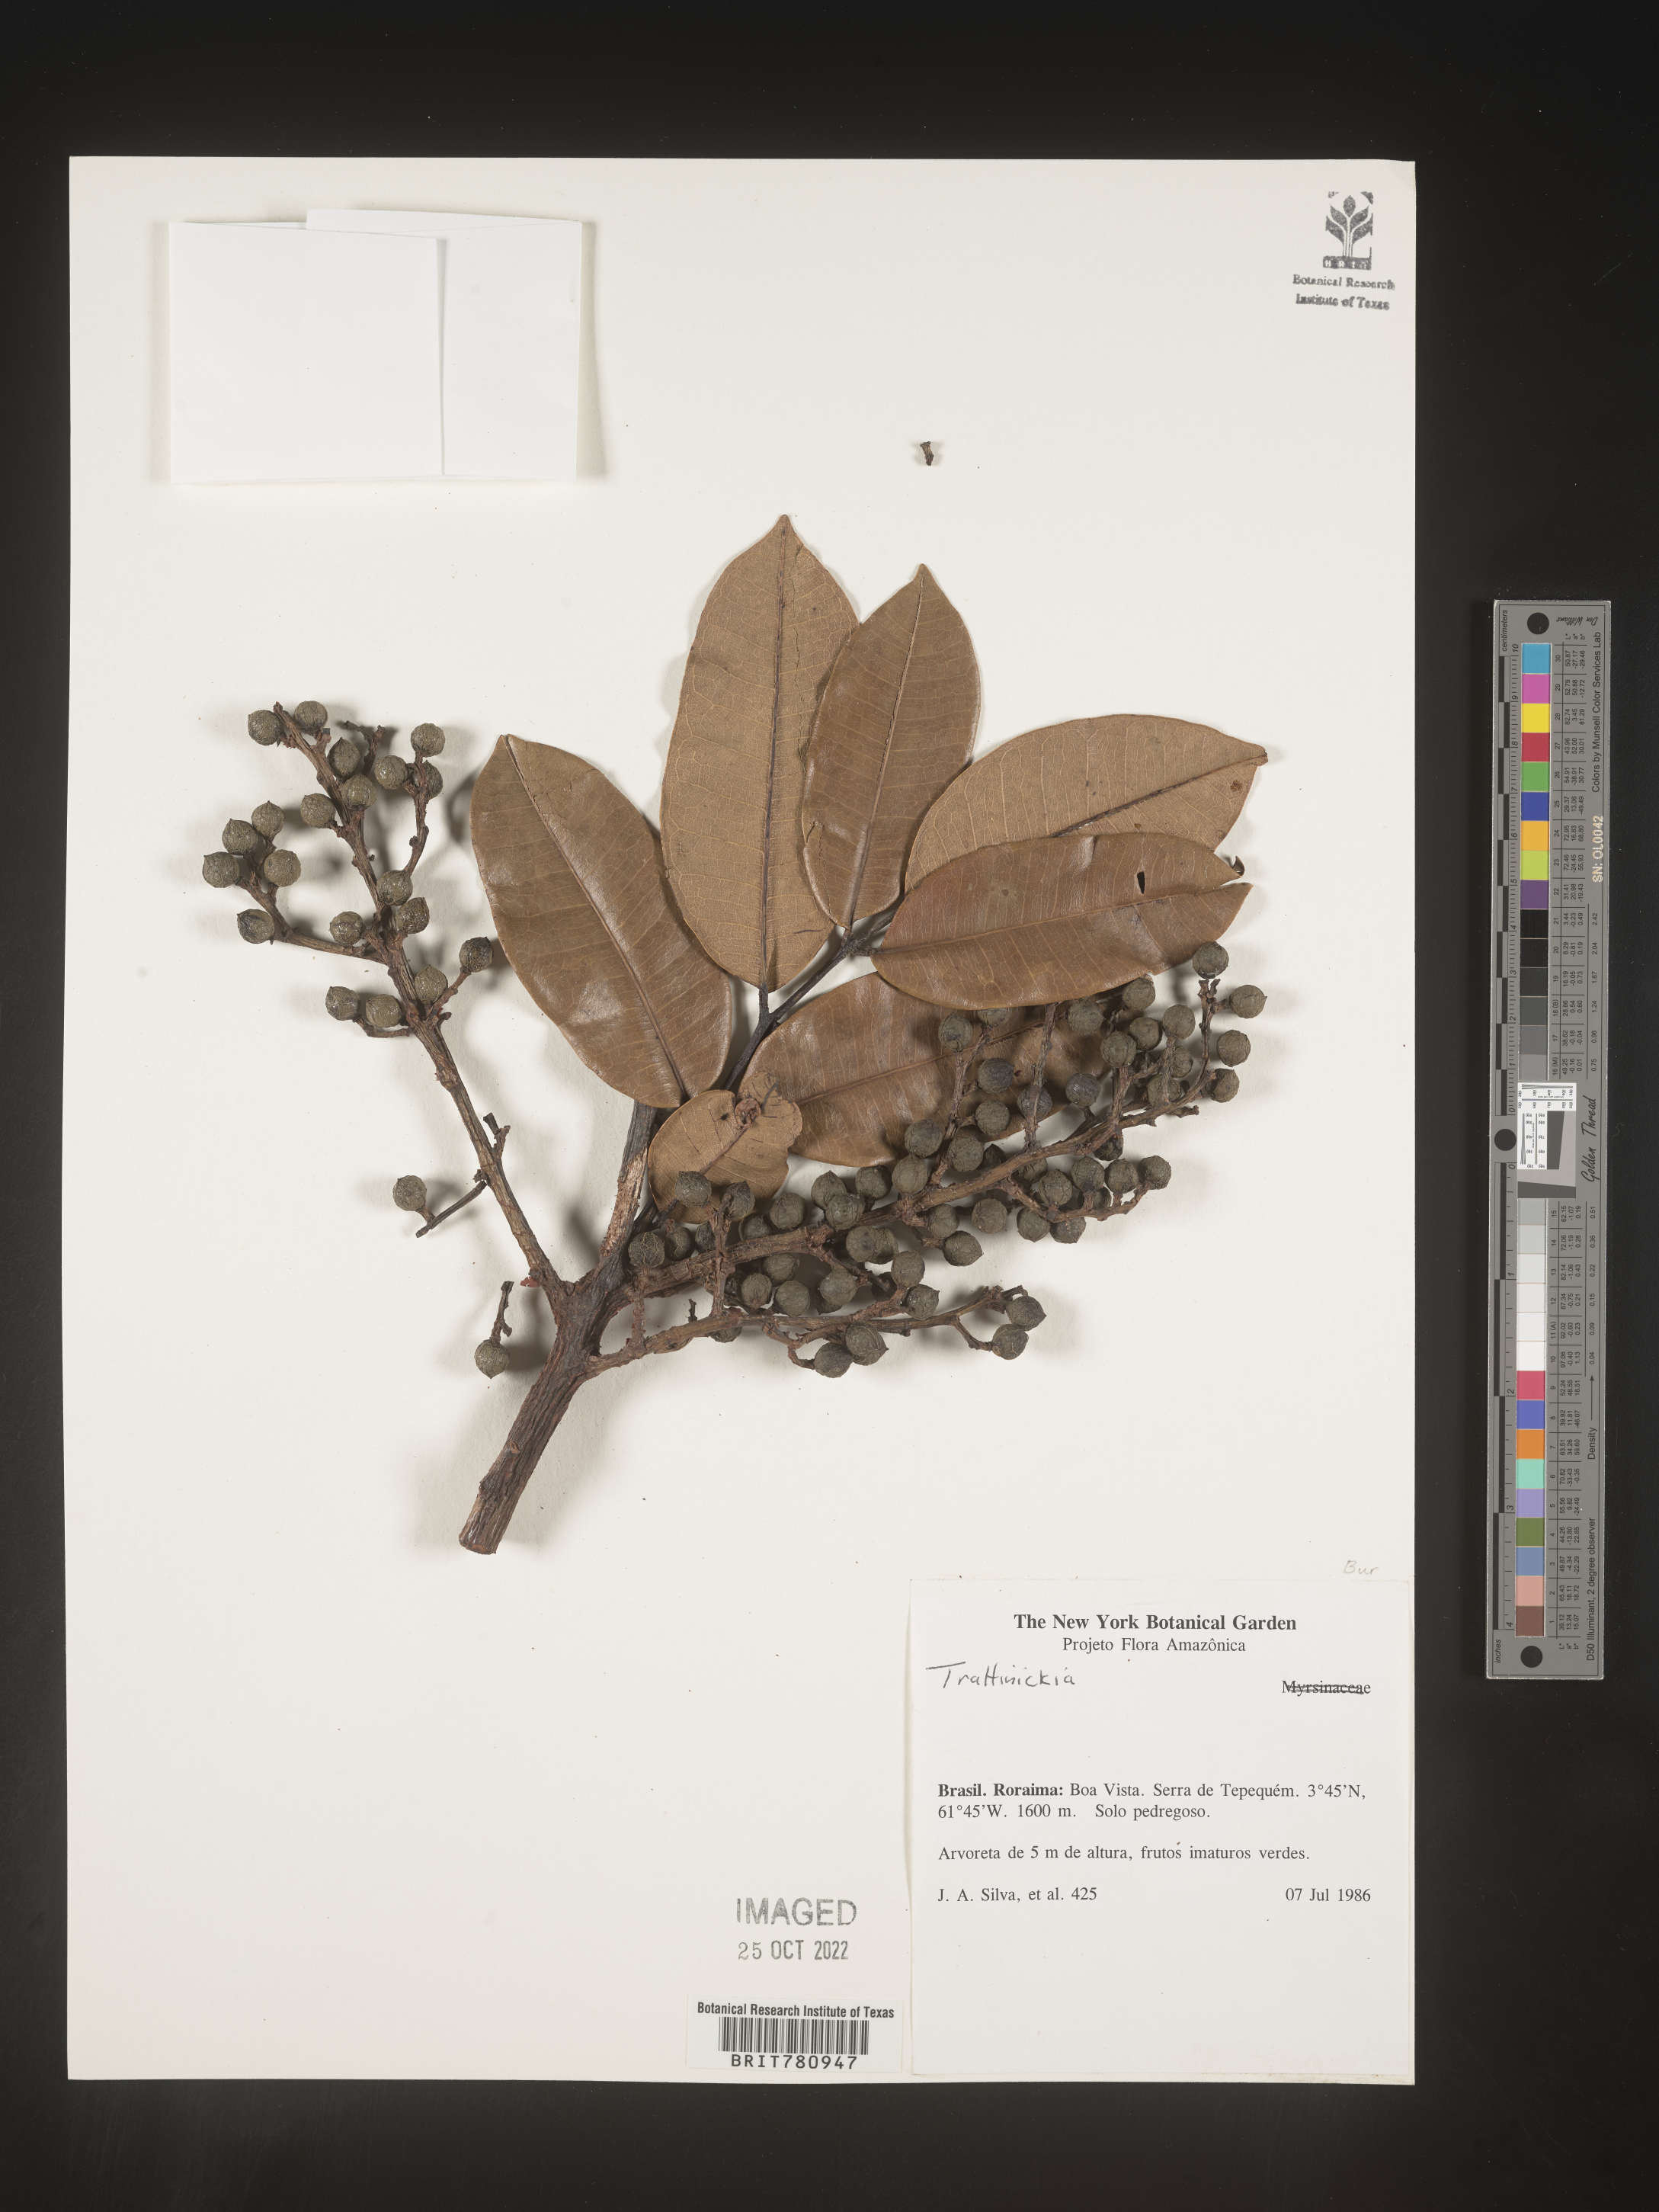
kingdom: Plantae
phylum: Tracheophyta
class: Magnoliopsida
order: Sapindales
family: Burseraceae
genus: Trattinnickia
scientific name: Trattinnickia
